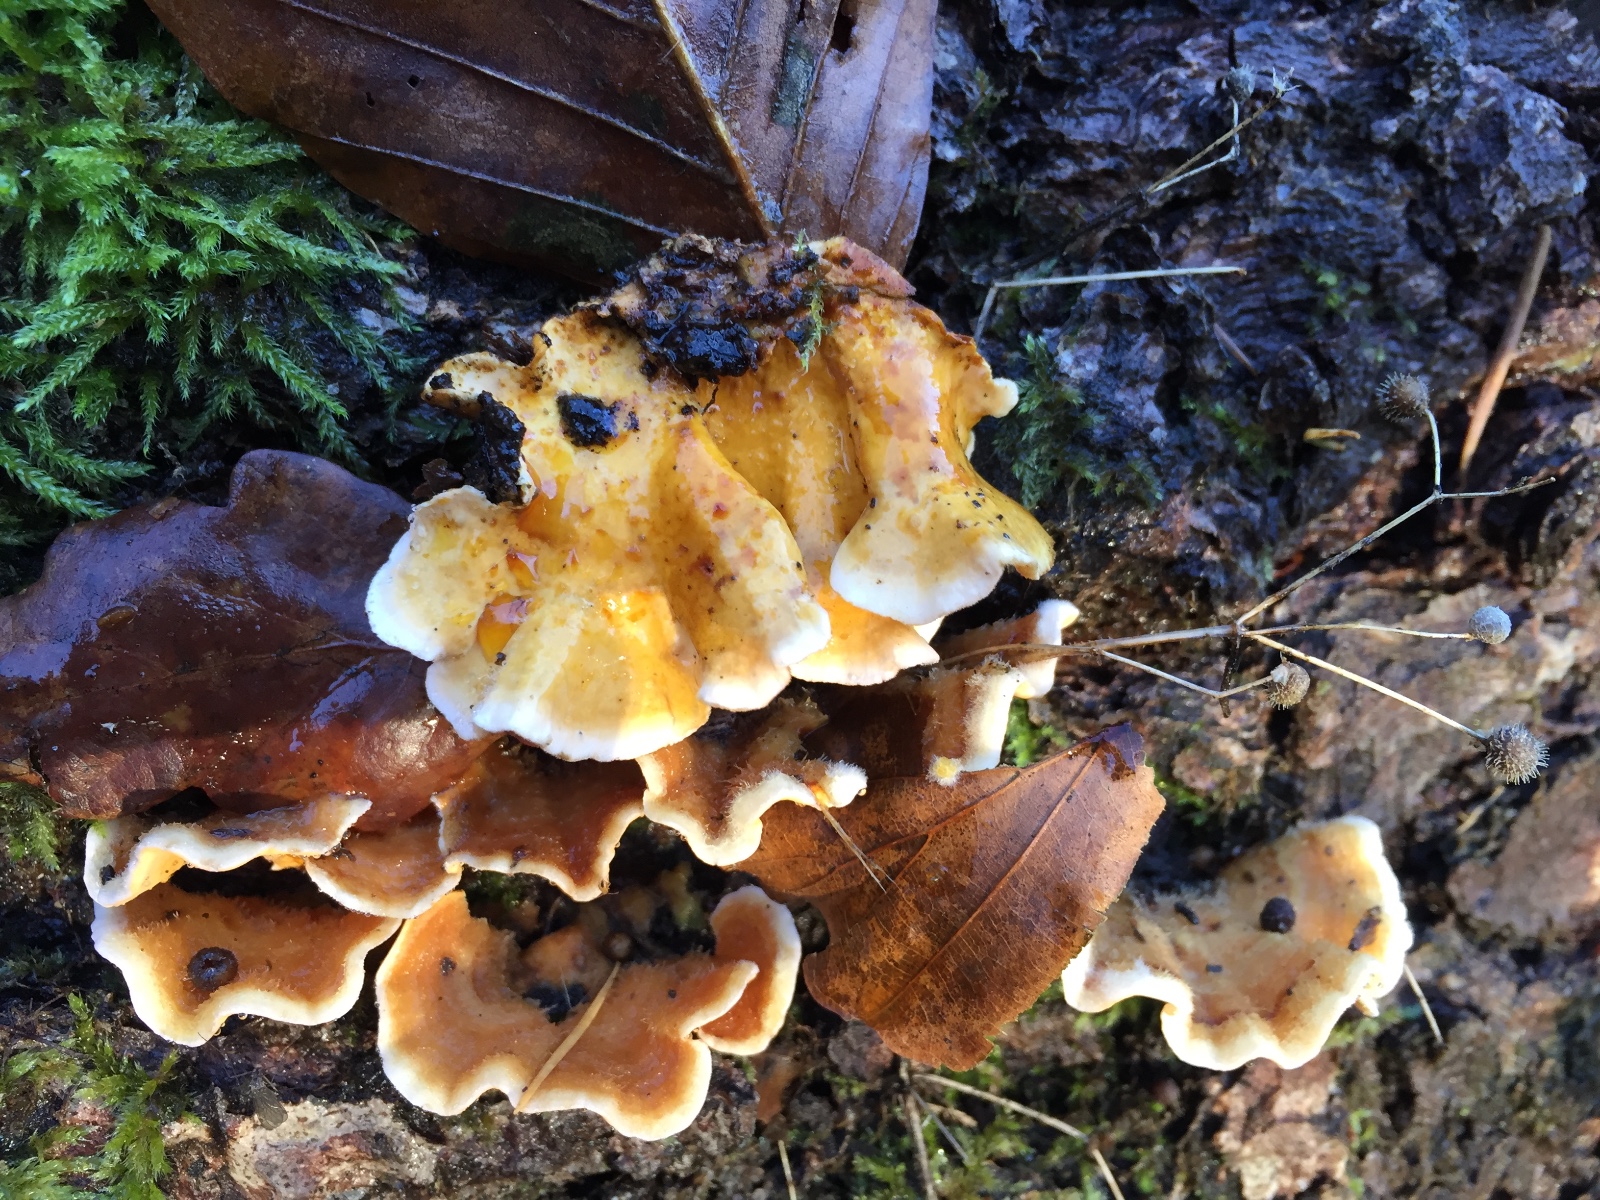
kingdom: Fungi
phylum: Basidiomycota
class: Agaricomycetes
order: Russulales
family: Stereaceae
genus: Stereum
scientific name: Stereum hirsutum
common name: håret lædersvamp
